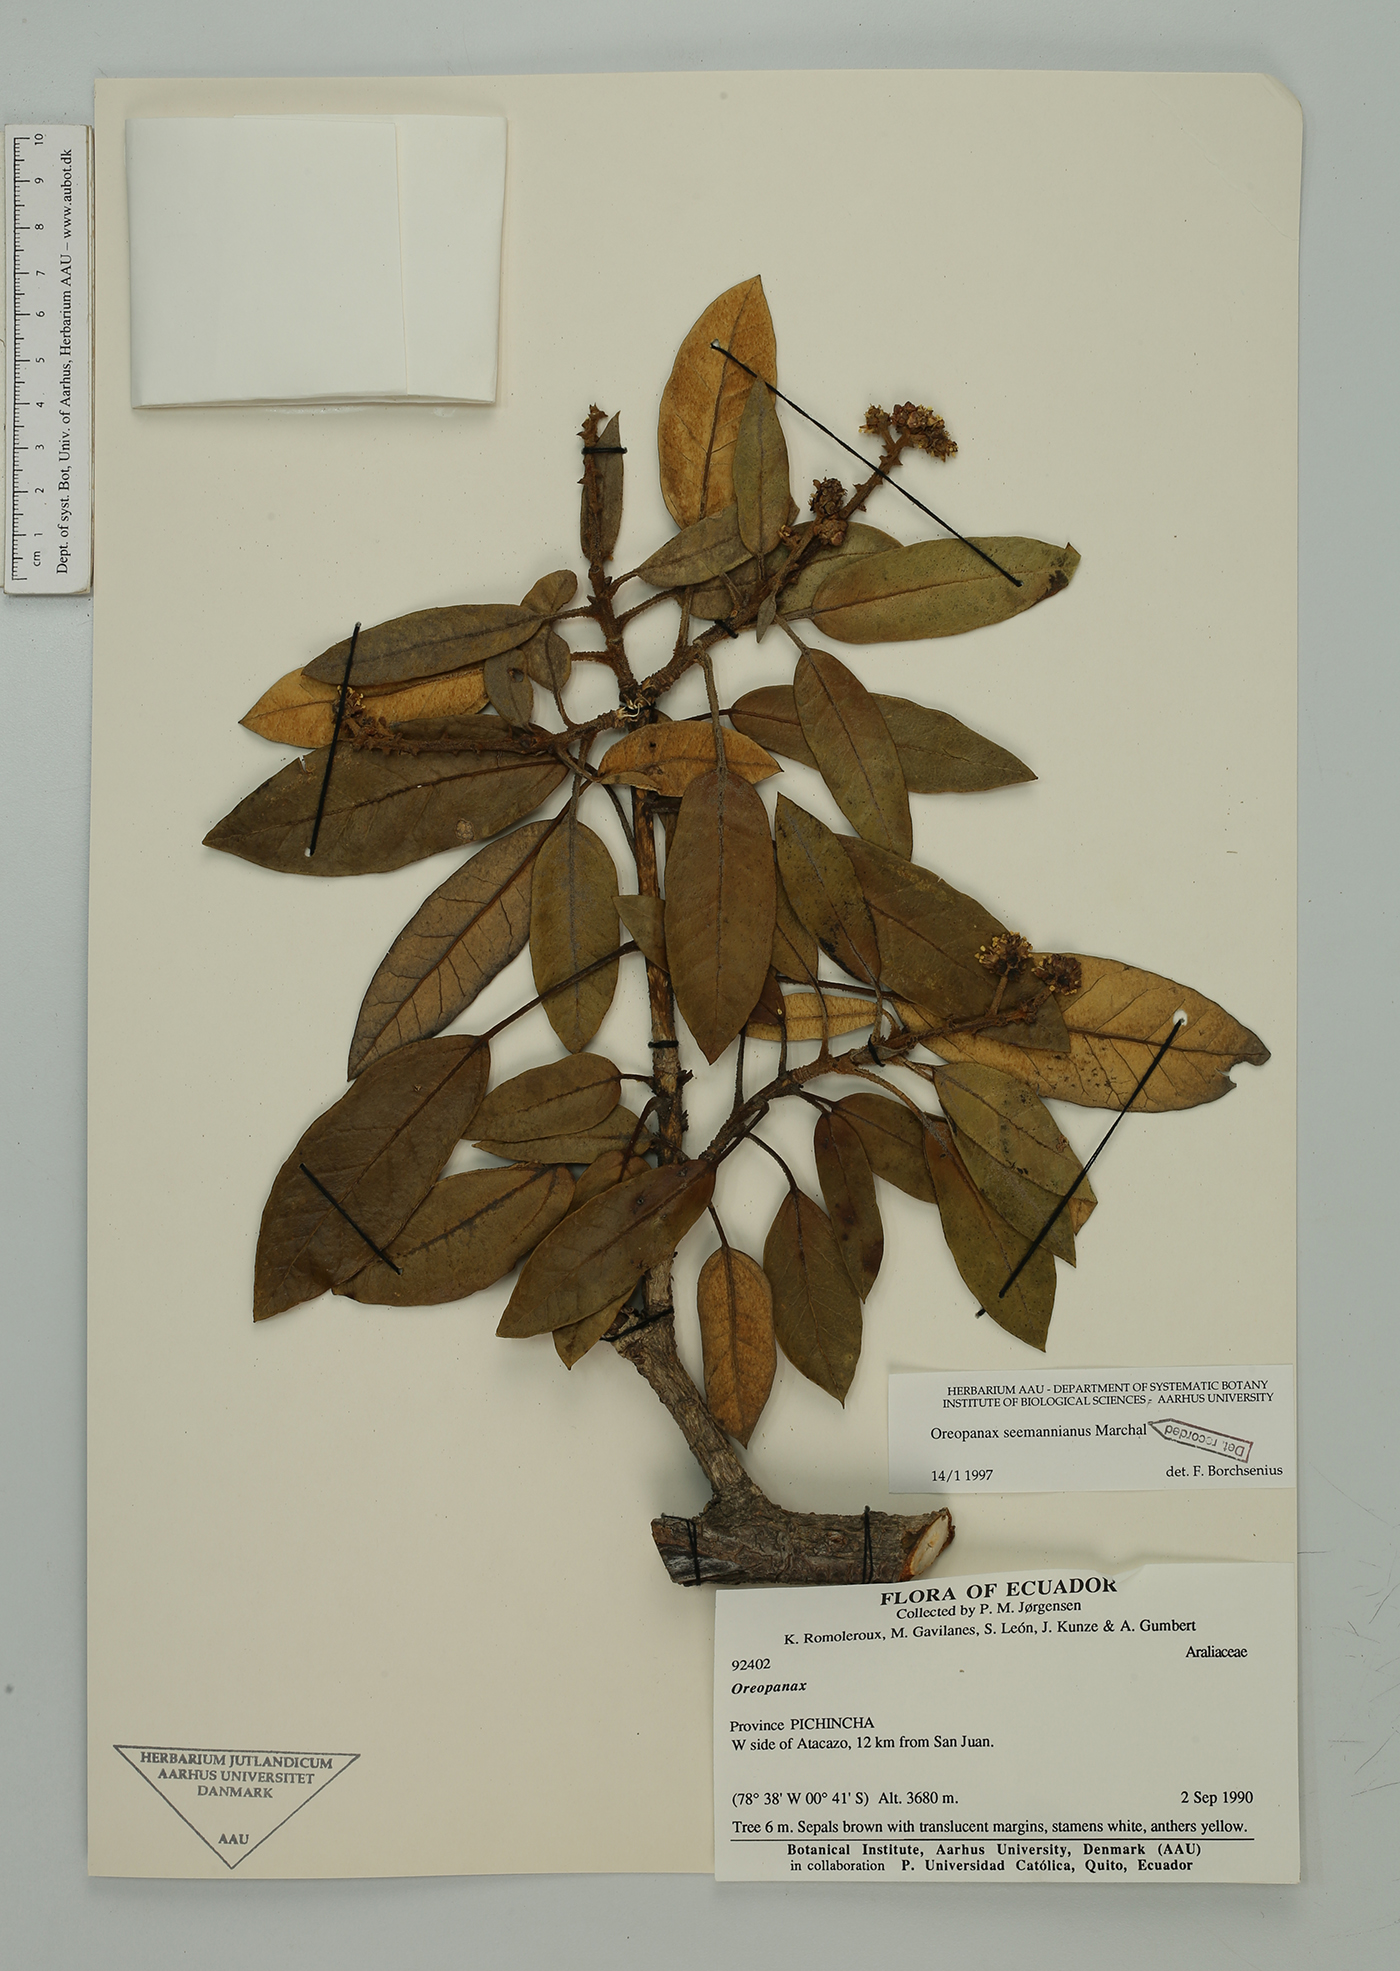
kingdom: Plantae
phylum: Tracheophyta
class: Magnoliopsida
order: Apiales
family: Araliaceae
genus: Oreopanax
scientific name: Oreopanax seemannianus
